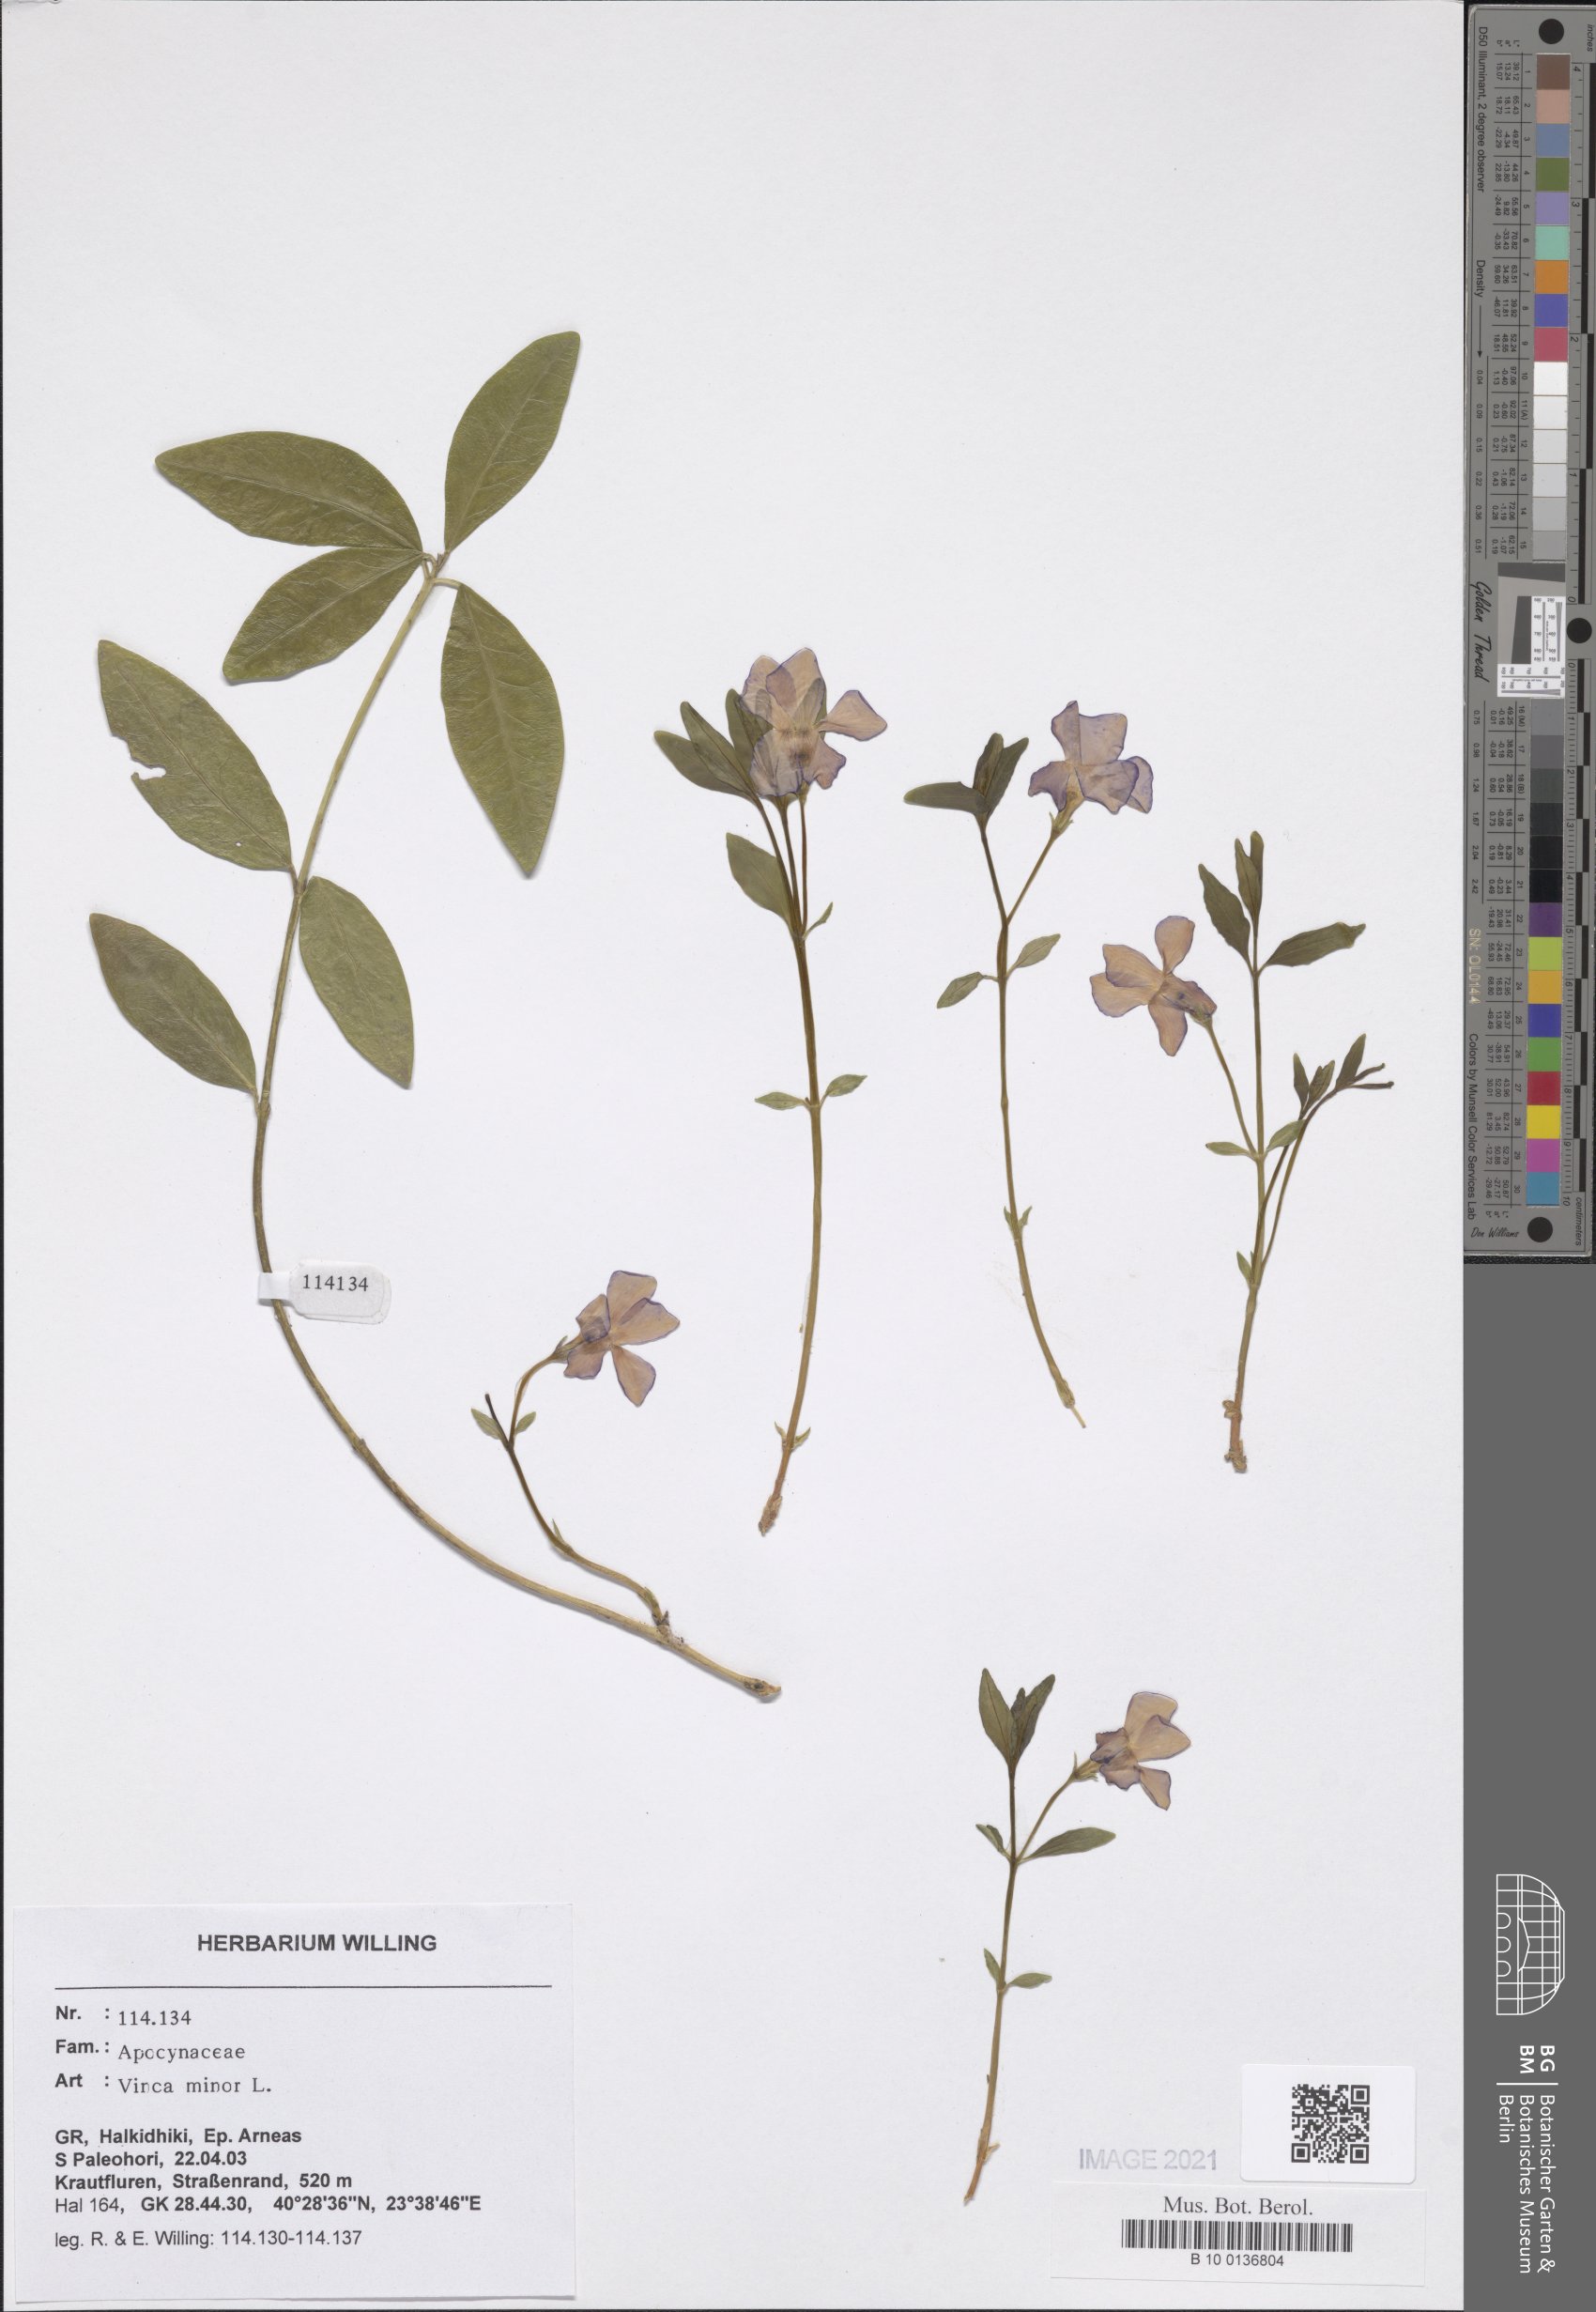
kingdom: Plantae
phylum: Tracheophyta
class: Magnoliopsida
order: Gentianales
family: Apocynaceae
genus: Vinca
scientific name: Vinca minor
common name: Lesser periwinkle
